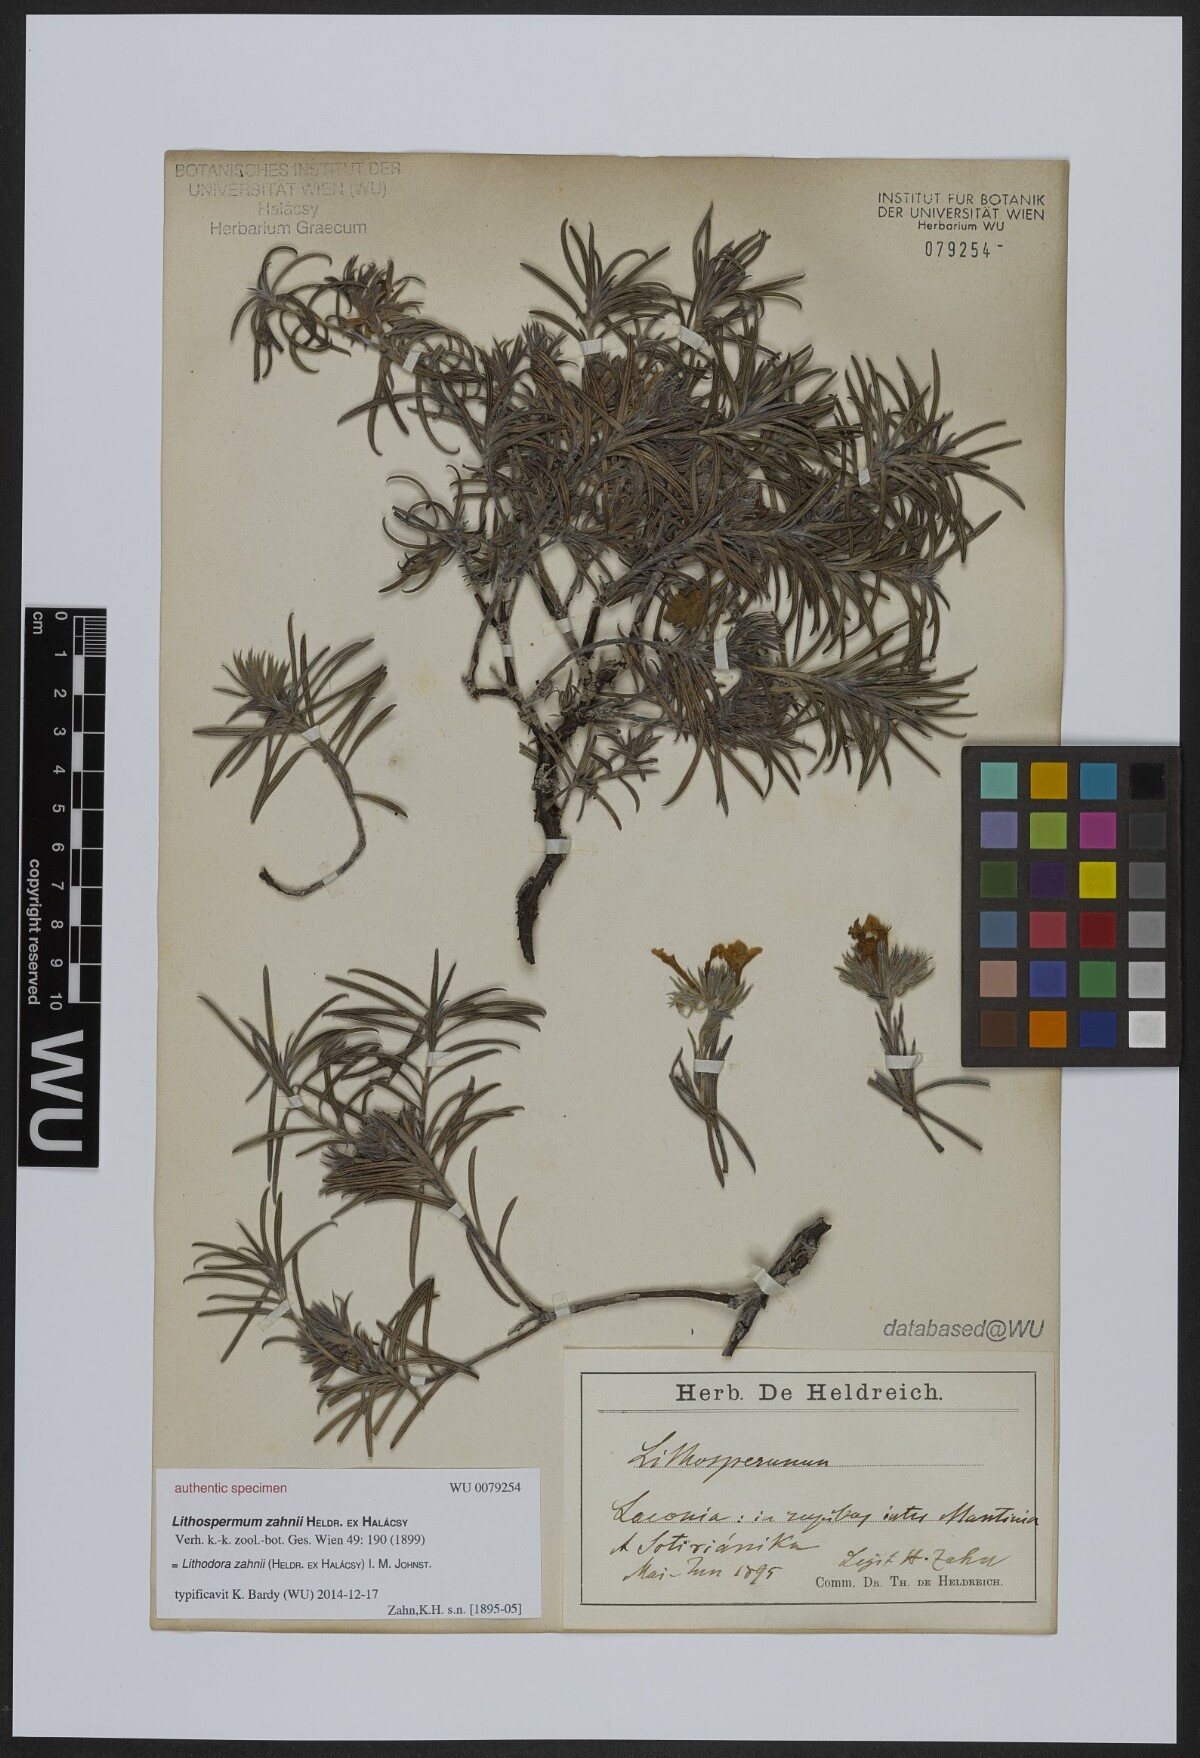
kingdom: Plantae
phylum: Tracheophyta
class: Magnoliopsida
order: Boraginales
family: Boraginaceae
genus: Lithodora
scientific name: Lithodora zahnii
